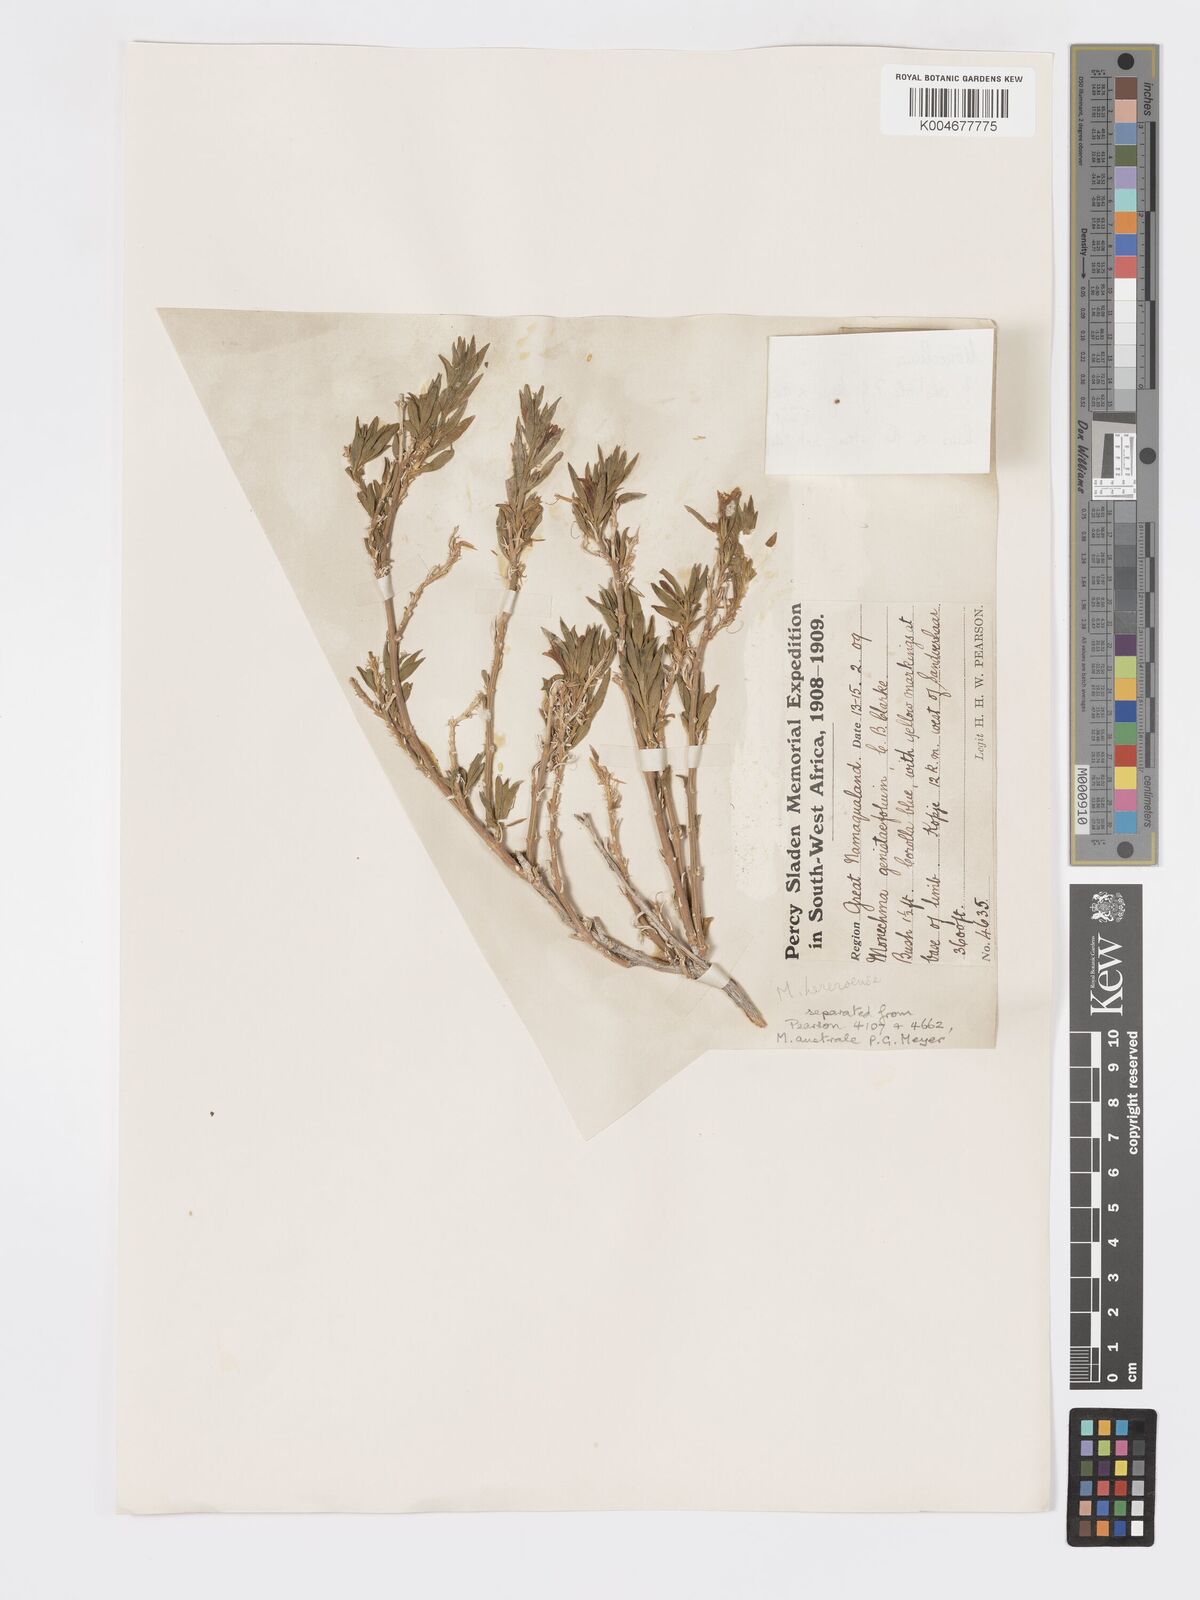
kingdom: Plantae
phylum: Tracheophyta
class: Magnoliopsida
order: Lamiales
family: Acanthaceae
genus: Pogonospermum
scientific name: Pogonospermum ciliare
